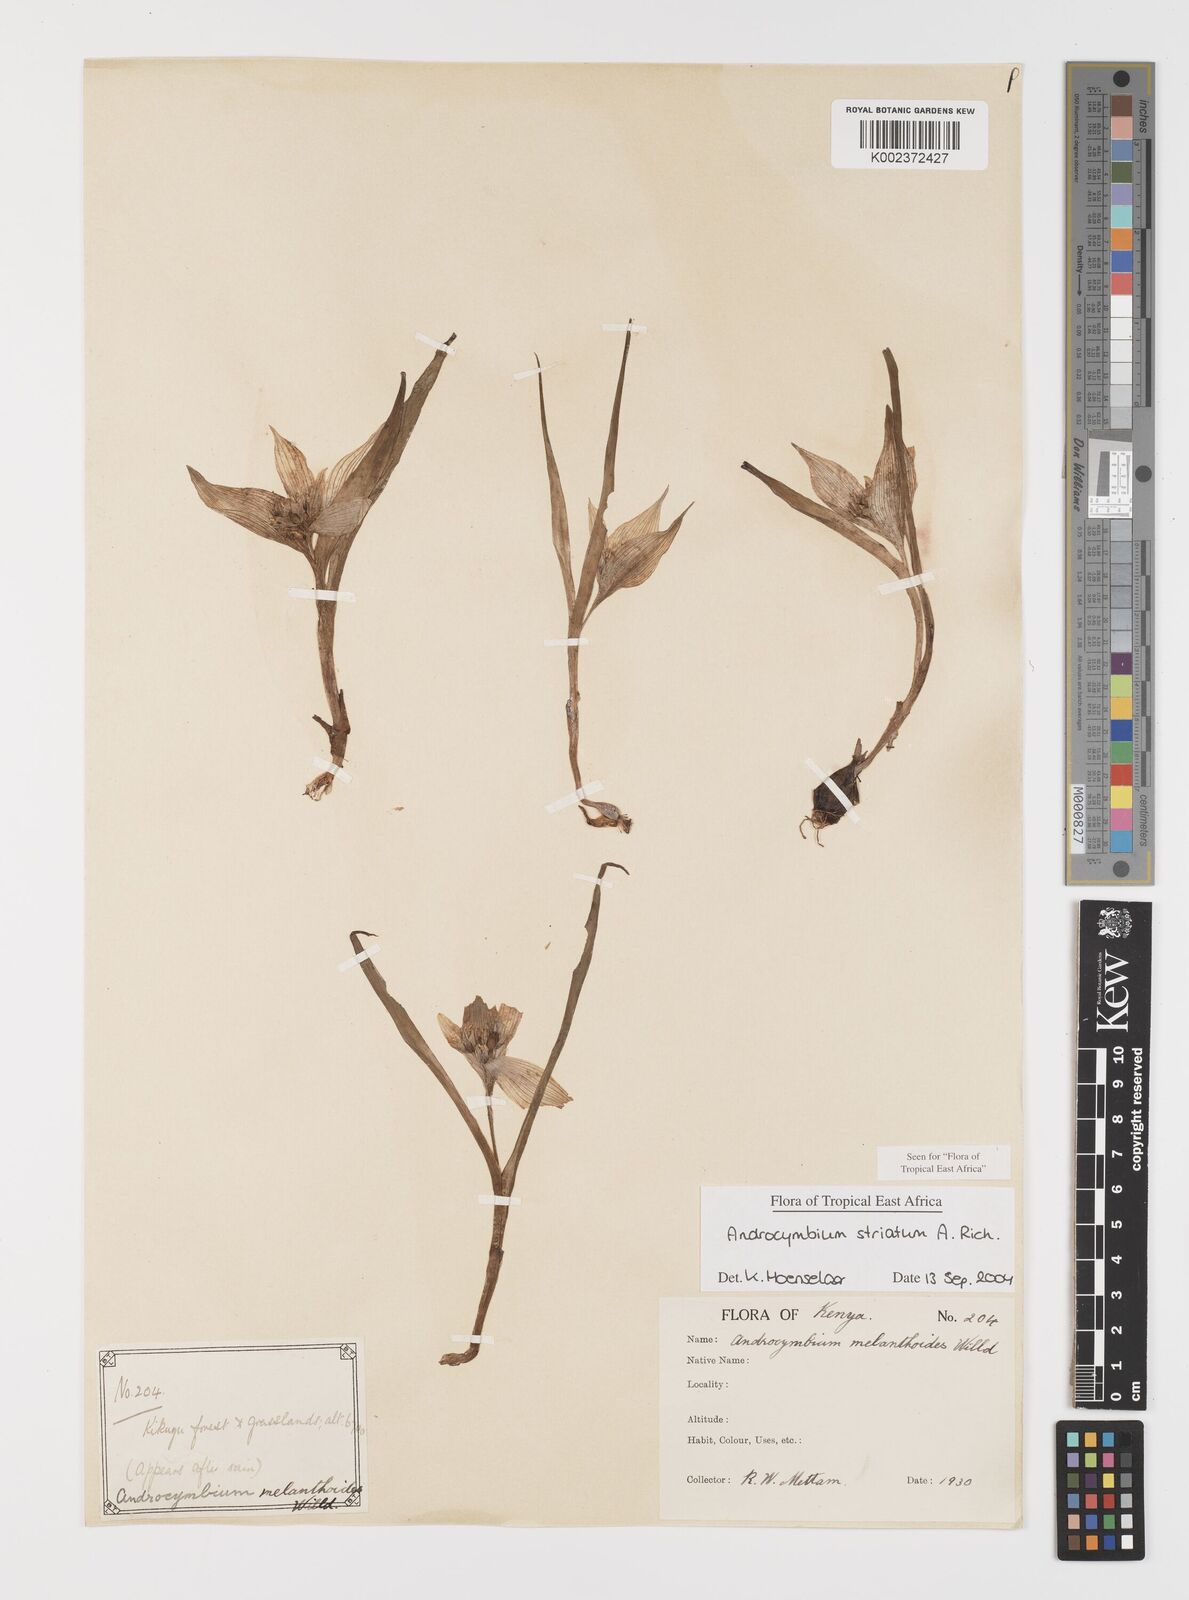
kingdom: Plantae
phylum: Tracheophyta
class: Liliopsida
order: Liliales
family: Colchicaceae
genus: Colchicum
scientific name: Colchicum striatum
